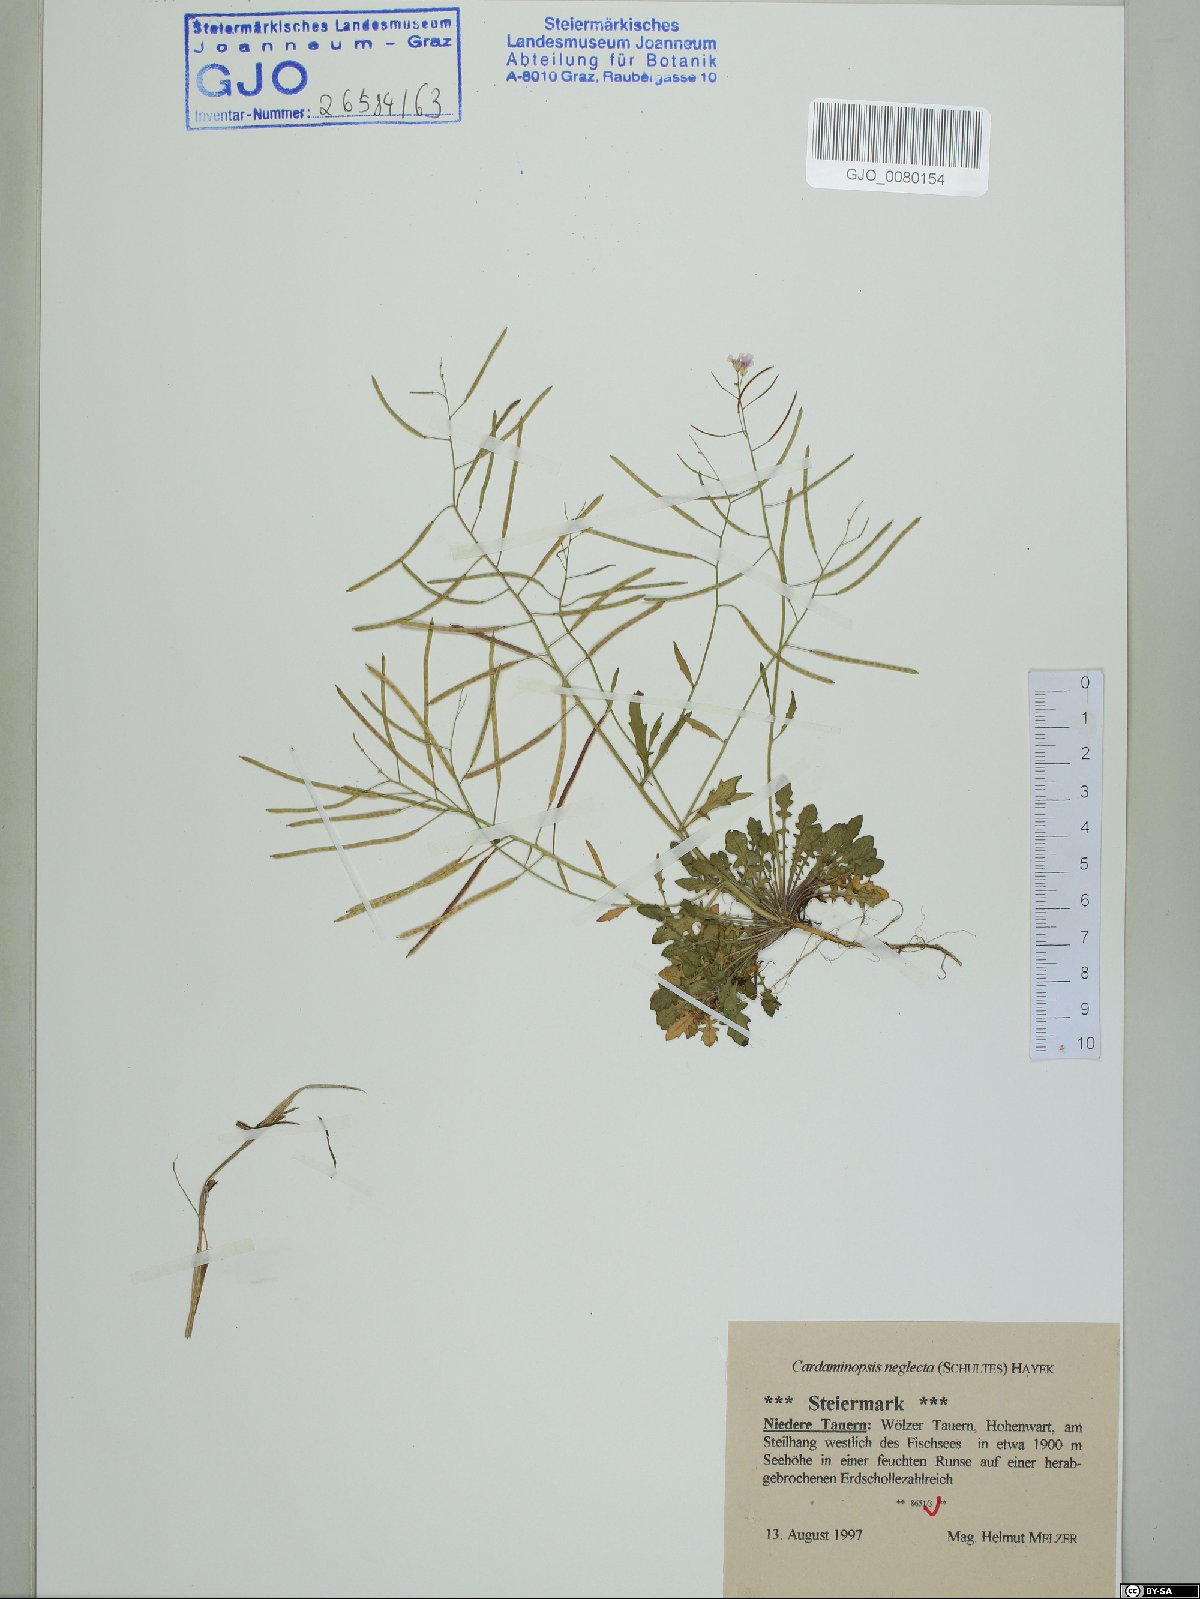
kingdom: Plantae
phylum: Tracheophyta
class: Magnoliopsida
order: Brassicales
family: Brassicaceae
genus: Arabidopsis
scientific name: Arabidopsis neglecta
